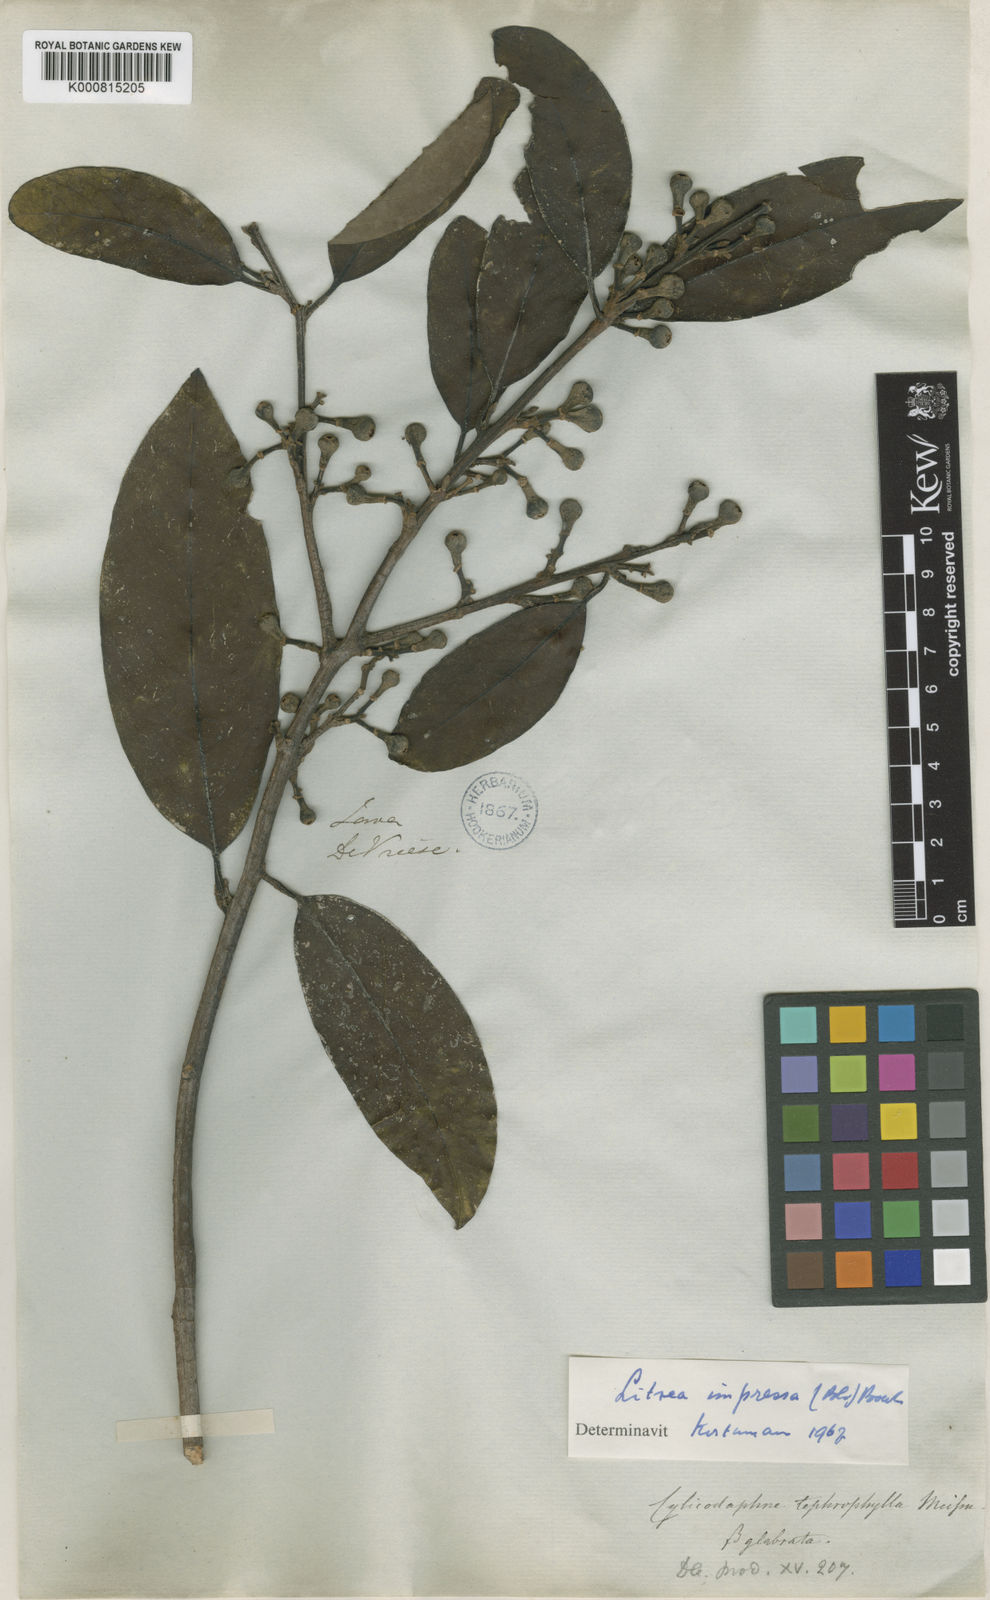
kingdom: Plantae
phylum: Tracheophyta
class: Magnoliopsida
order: Laurales
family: Lauraceae
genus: Litsea
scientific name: Litsea impressa
